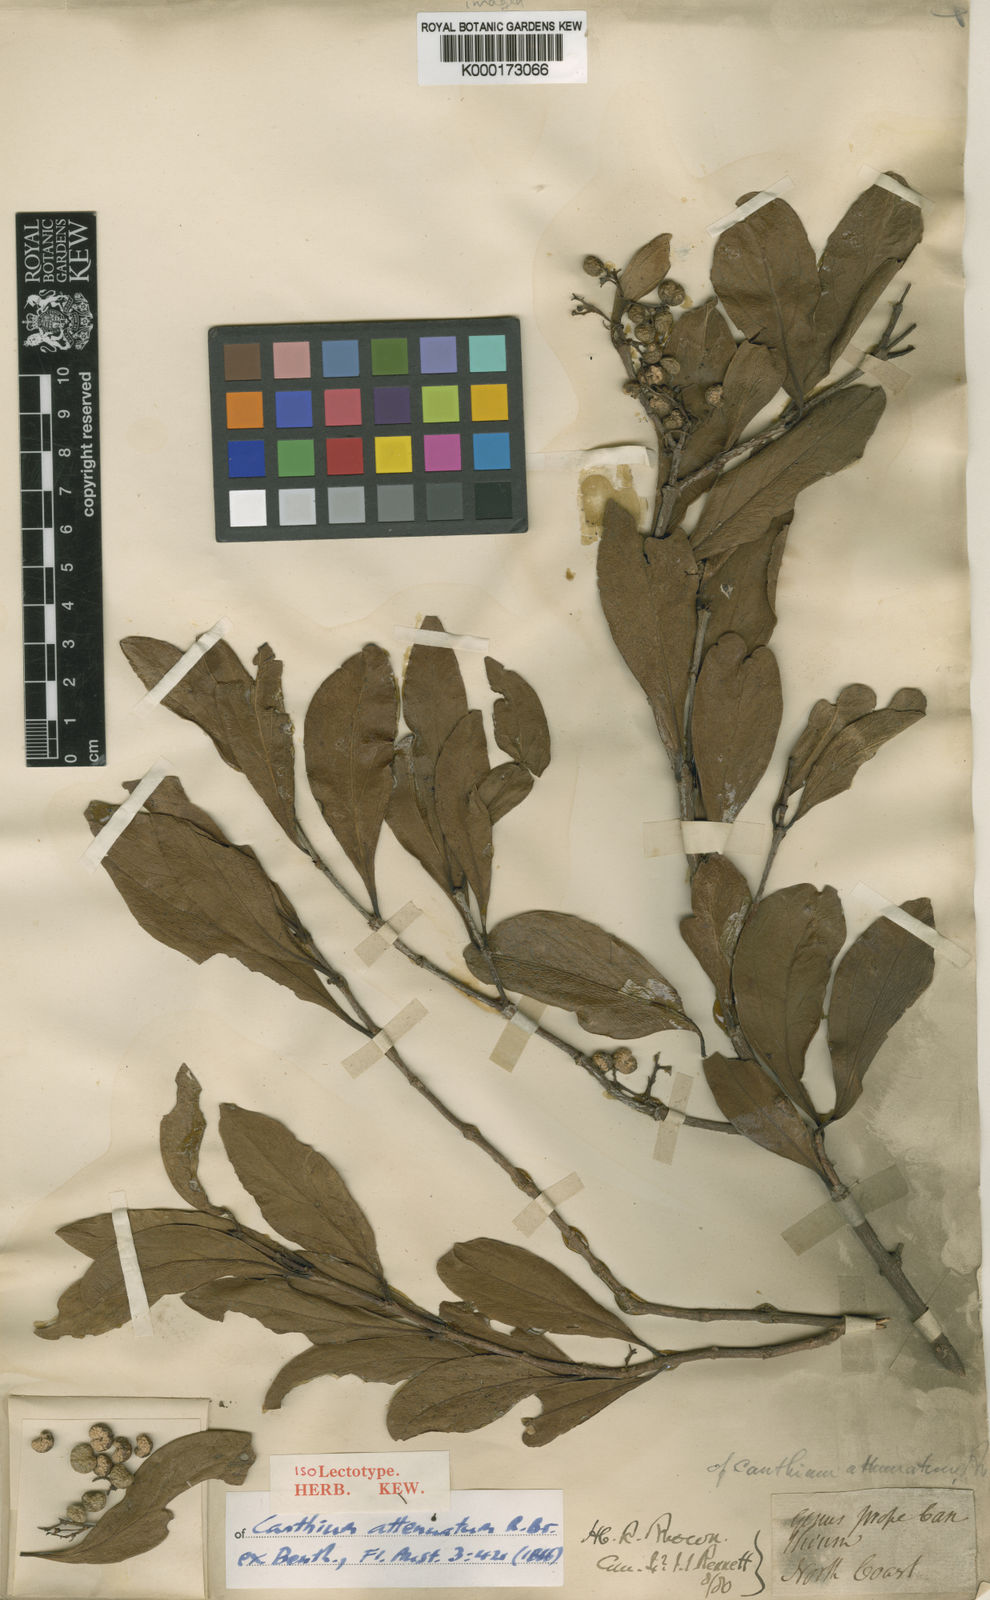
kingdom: Plantae
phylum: Tracheophyta
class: Magnoliopsida
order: Gentianales
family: Rubiaceae
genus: Psydrax
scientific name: Psydrax attenuatus
